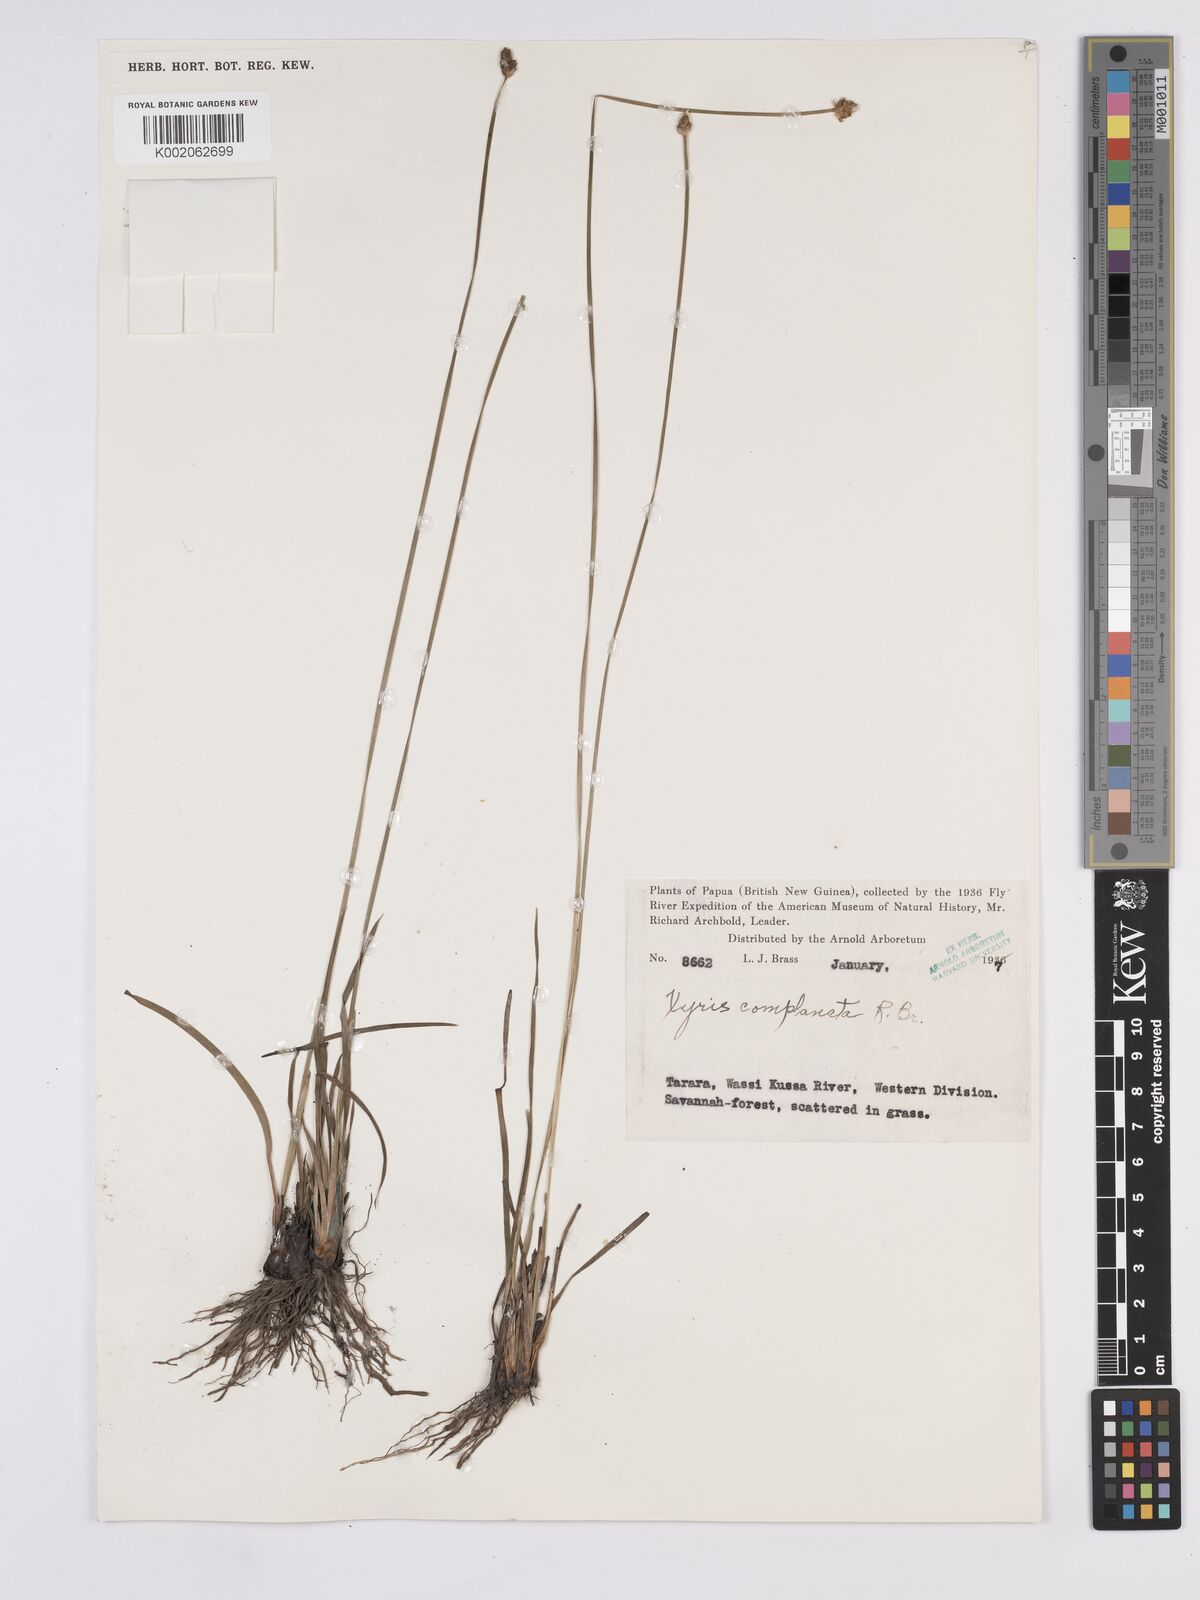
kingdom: Plantae
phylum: Tracheophyta
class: Liliopsida
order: Poales
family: Xyridaceae
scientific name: Xyridaceae
